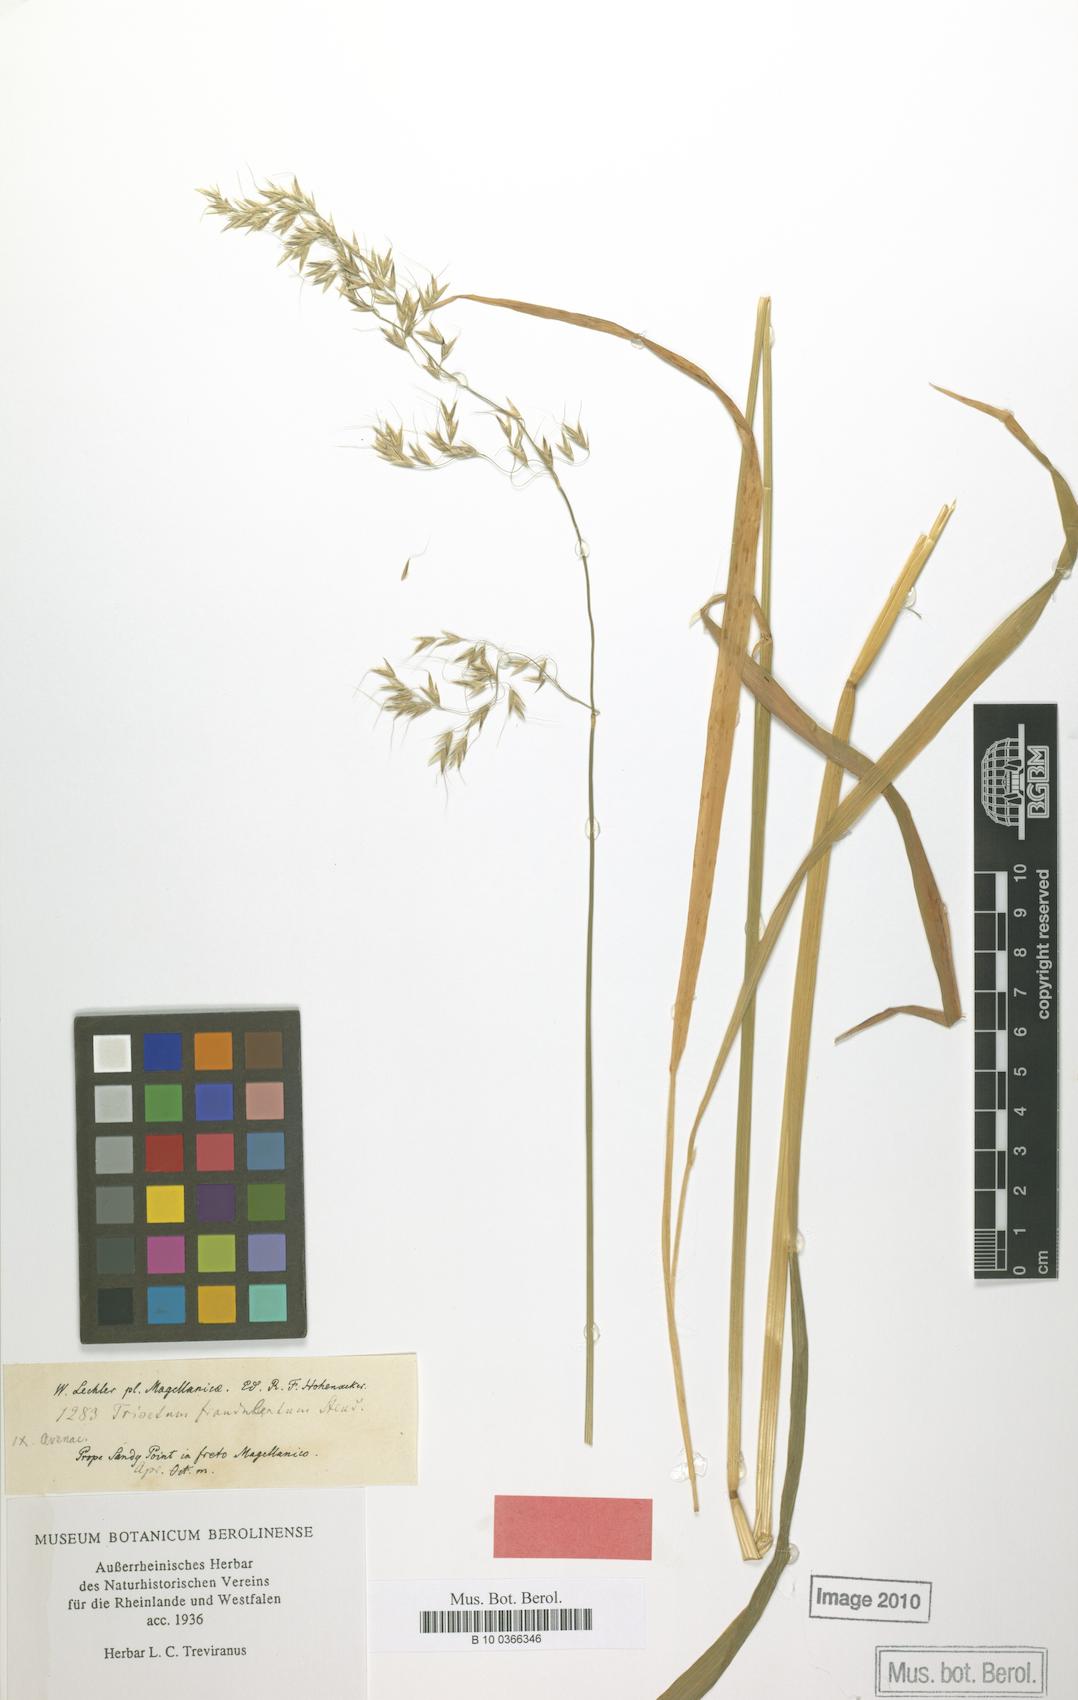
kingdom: Plantae
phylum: Tracheophyta
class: Liliopsida
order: Poales
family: Poaceae
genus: Graphephorum
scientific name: Graphephorum cernuum
